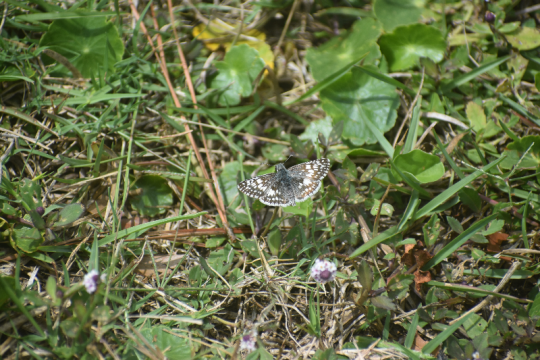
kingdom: Animalia
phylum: Arthropoda
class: Insecta
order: Lepidoptera
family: Hesperiidae
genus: Pyrgus
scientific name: Pyrgus
